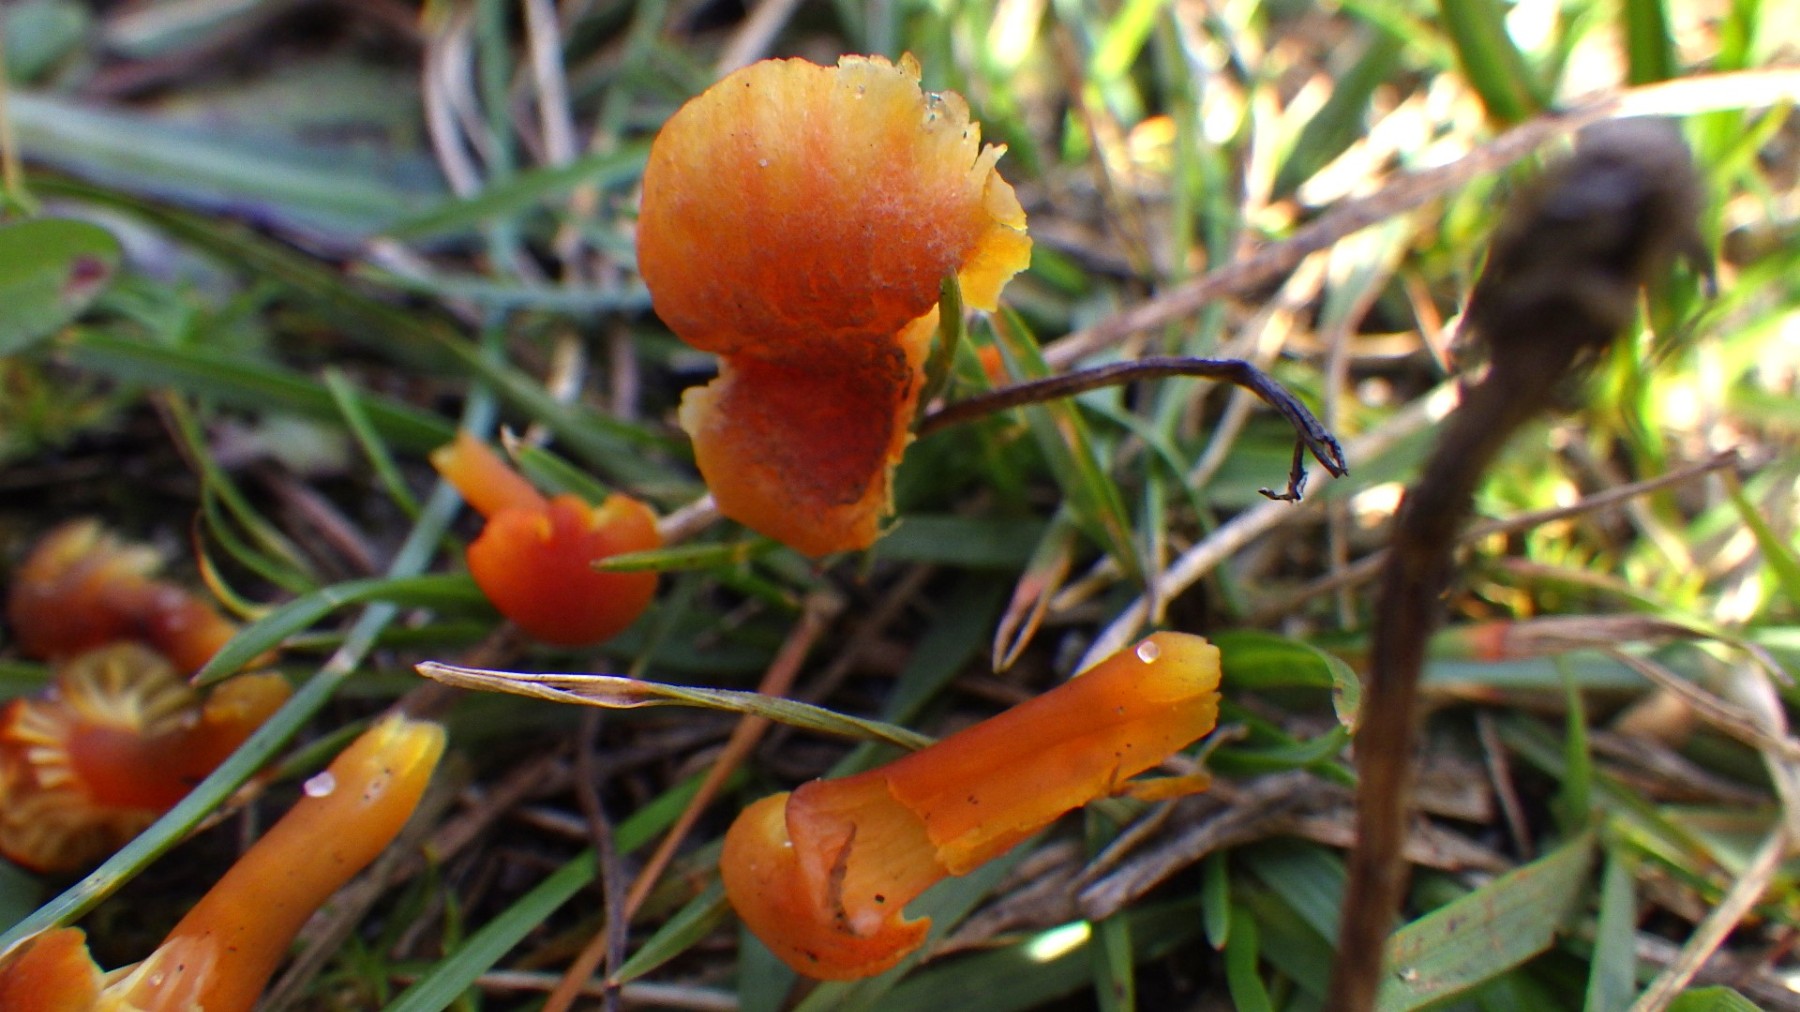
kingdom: Fungi
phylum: Basidiomycota
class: Agaricomycetes
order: Agaricales
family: Hygrophoraceae
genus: Hygrocybe
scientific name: Hygrocybe turunda
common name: sortskællet vokshat
